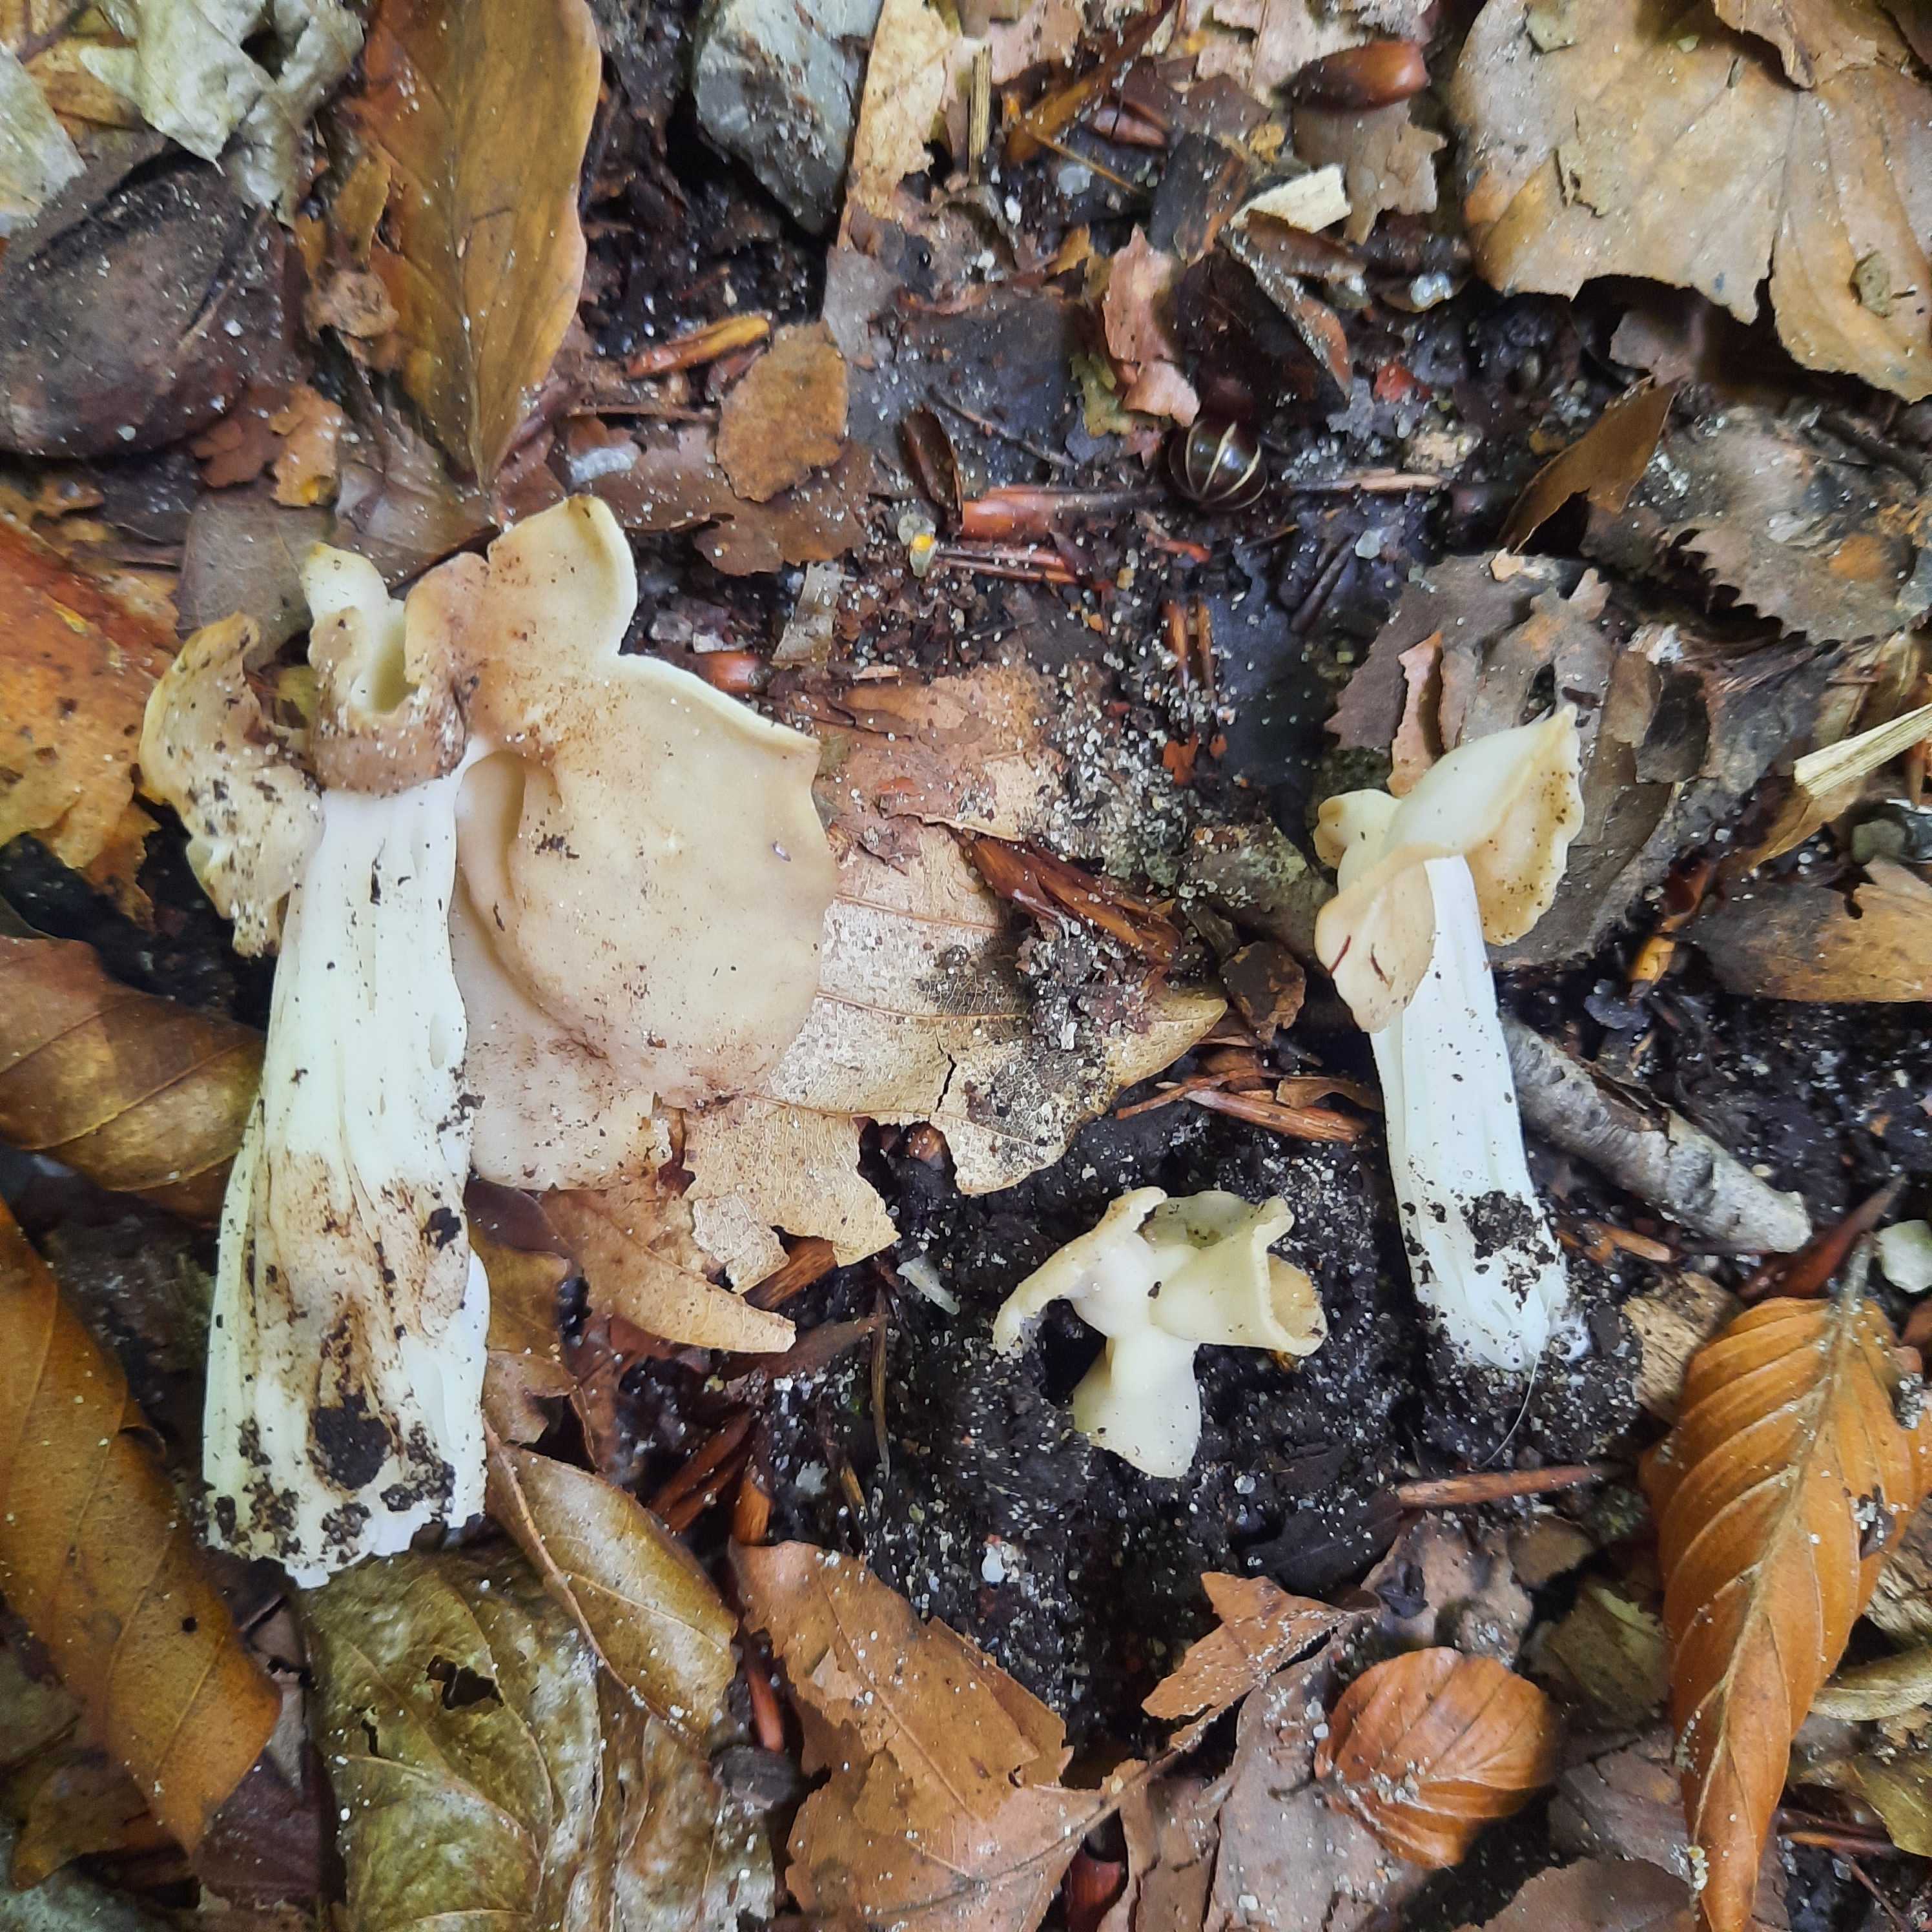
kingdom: Fungi
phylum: Ascomycota
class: Pezizomycetes
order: Pezizales
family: Helvellaceae
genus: Helvella
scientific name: Helvella crispa
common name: kruset foldhat
